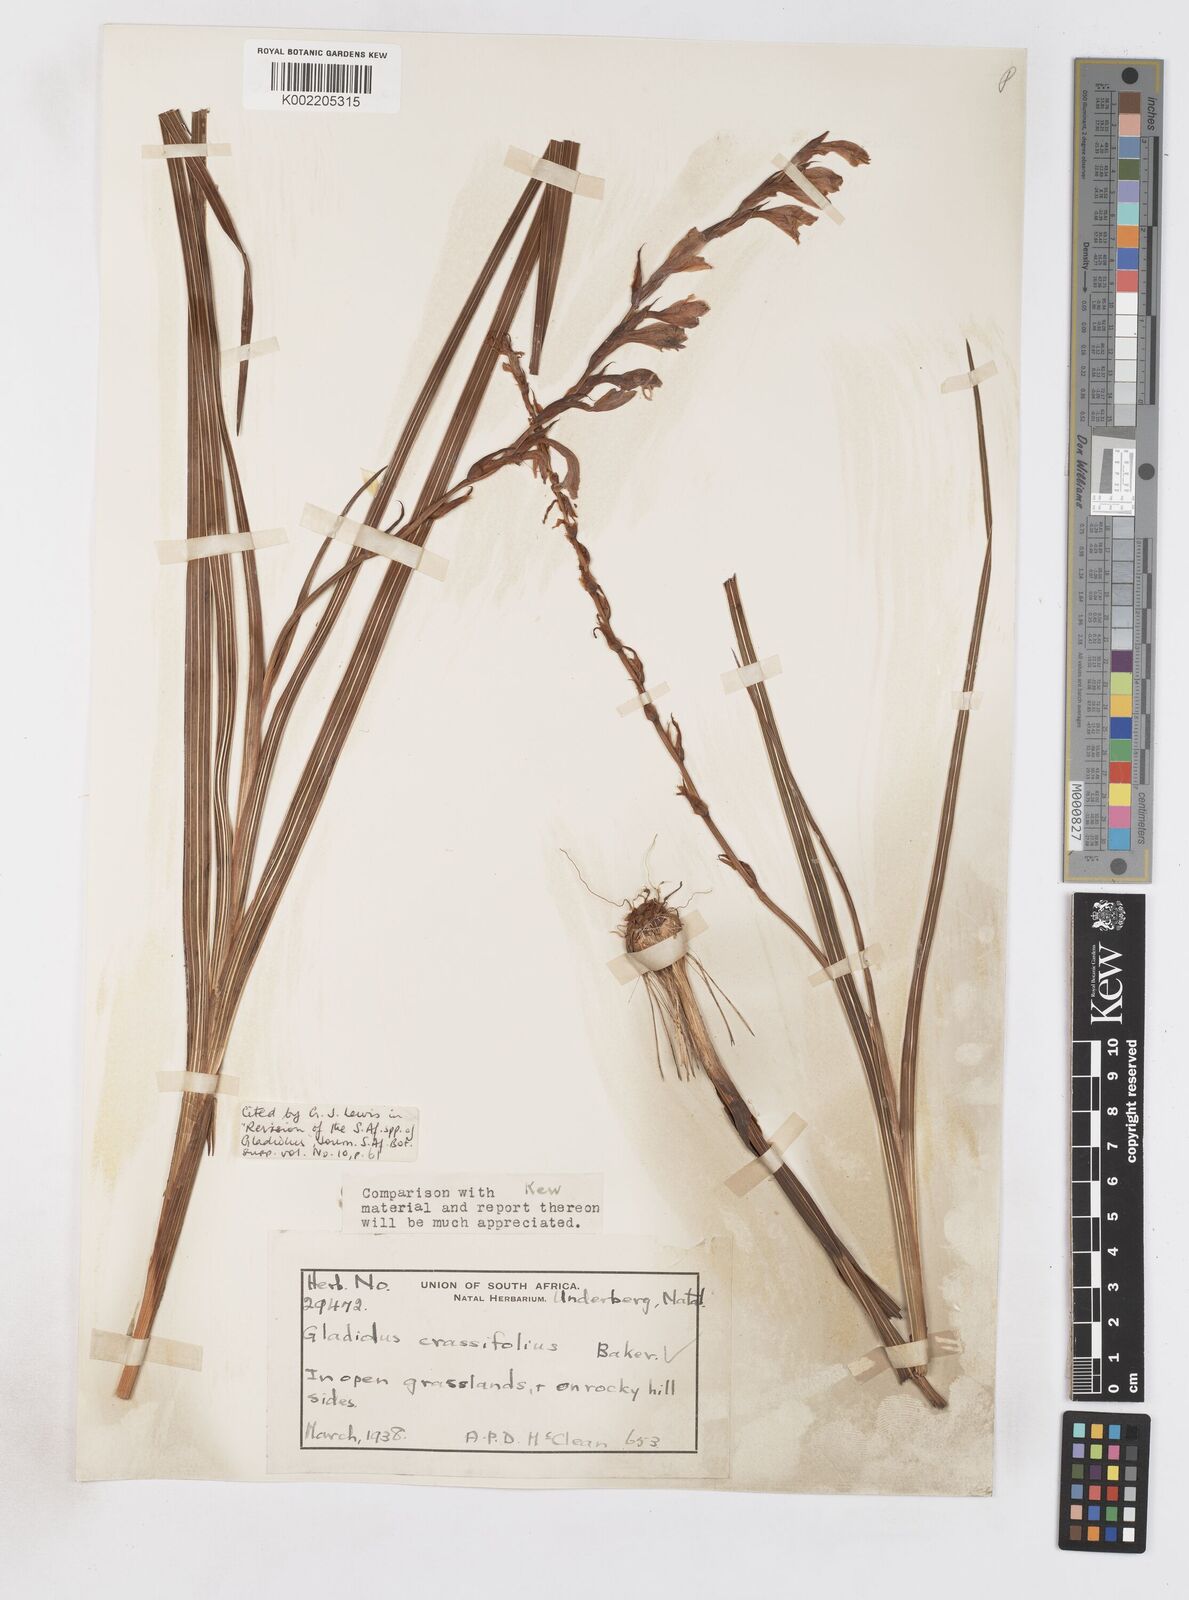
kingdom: Plantae
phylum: Tracheophyta
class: Liliopsida
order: Asparagales
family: Iridaceae
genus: Gladiolus
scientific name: Gladiolus crassifolius
